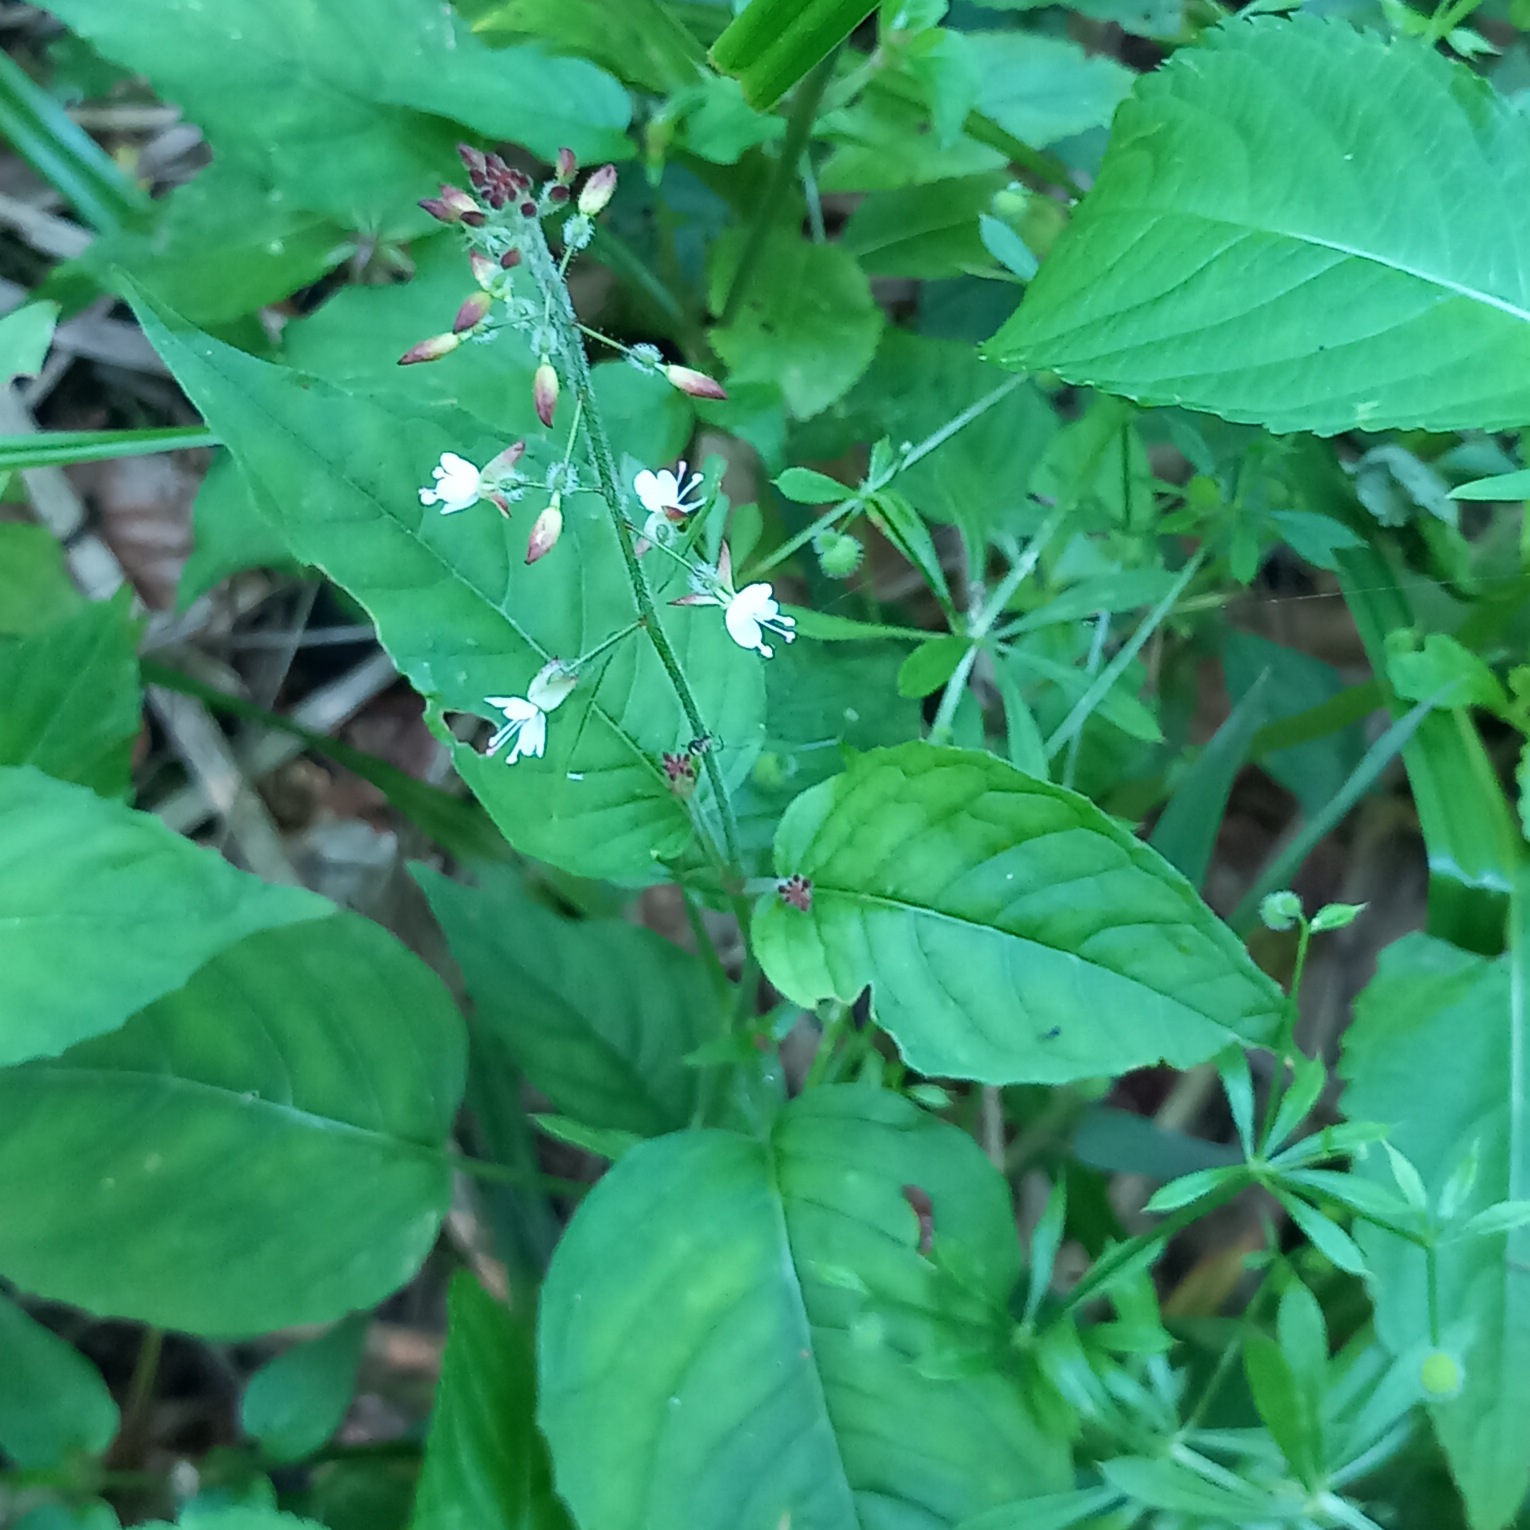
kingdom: Plantae
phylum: Tracheophyta
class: Magnoliopsida
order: Myrtales
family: Onagraceae
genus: Circaea
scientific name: Circaea lutetiana
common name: Dunet steffensurt
